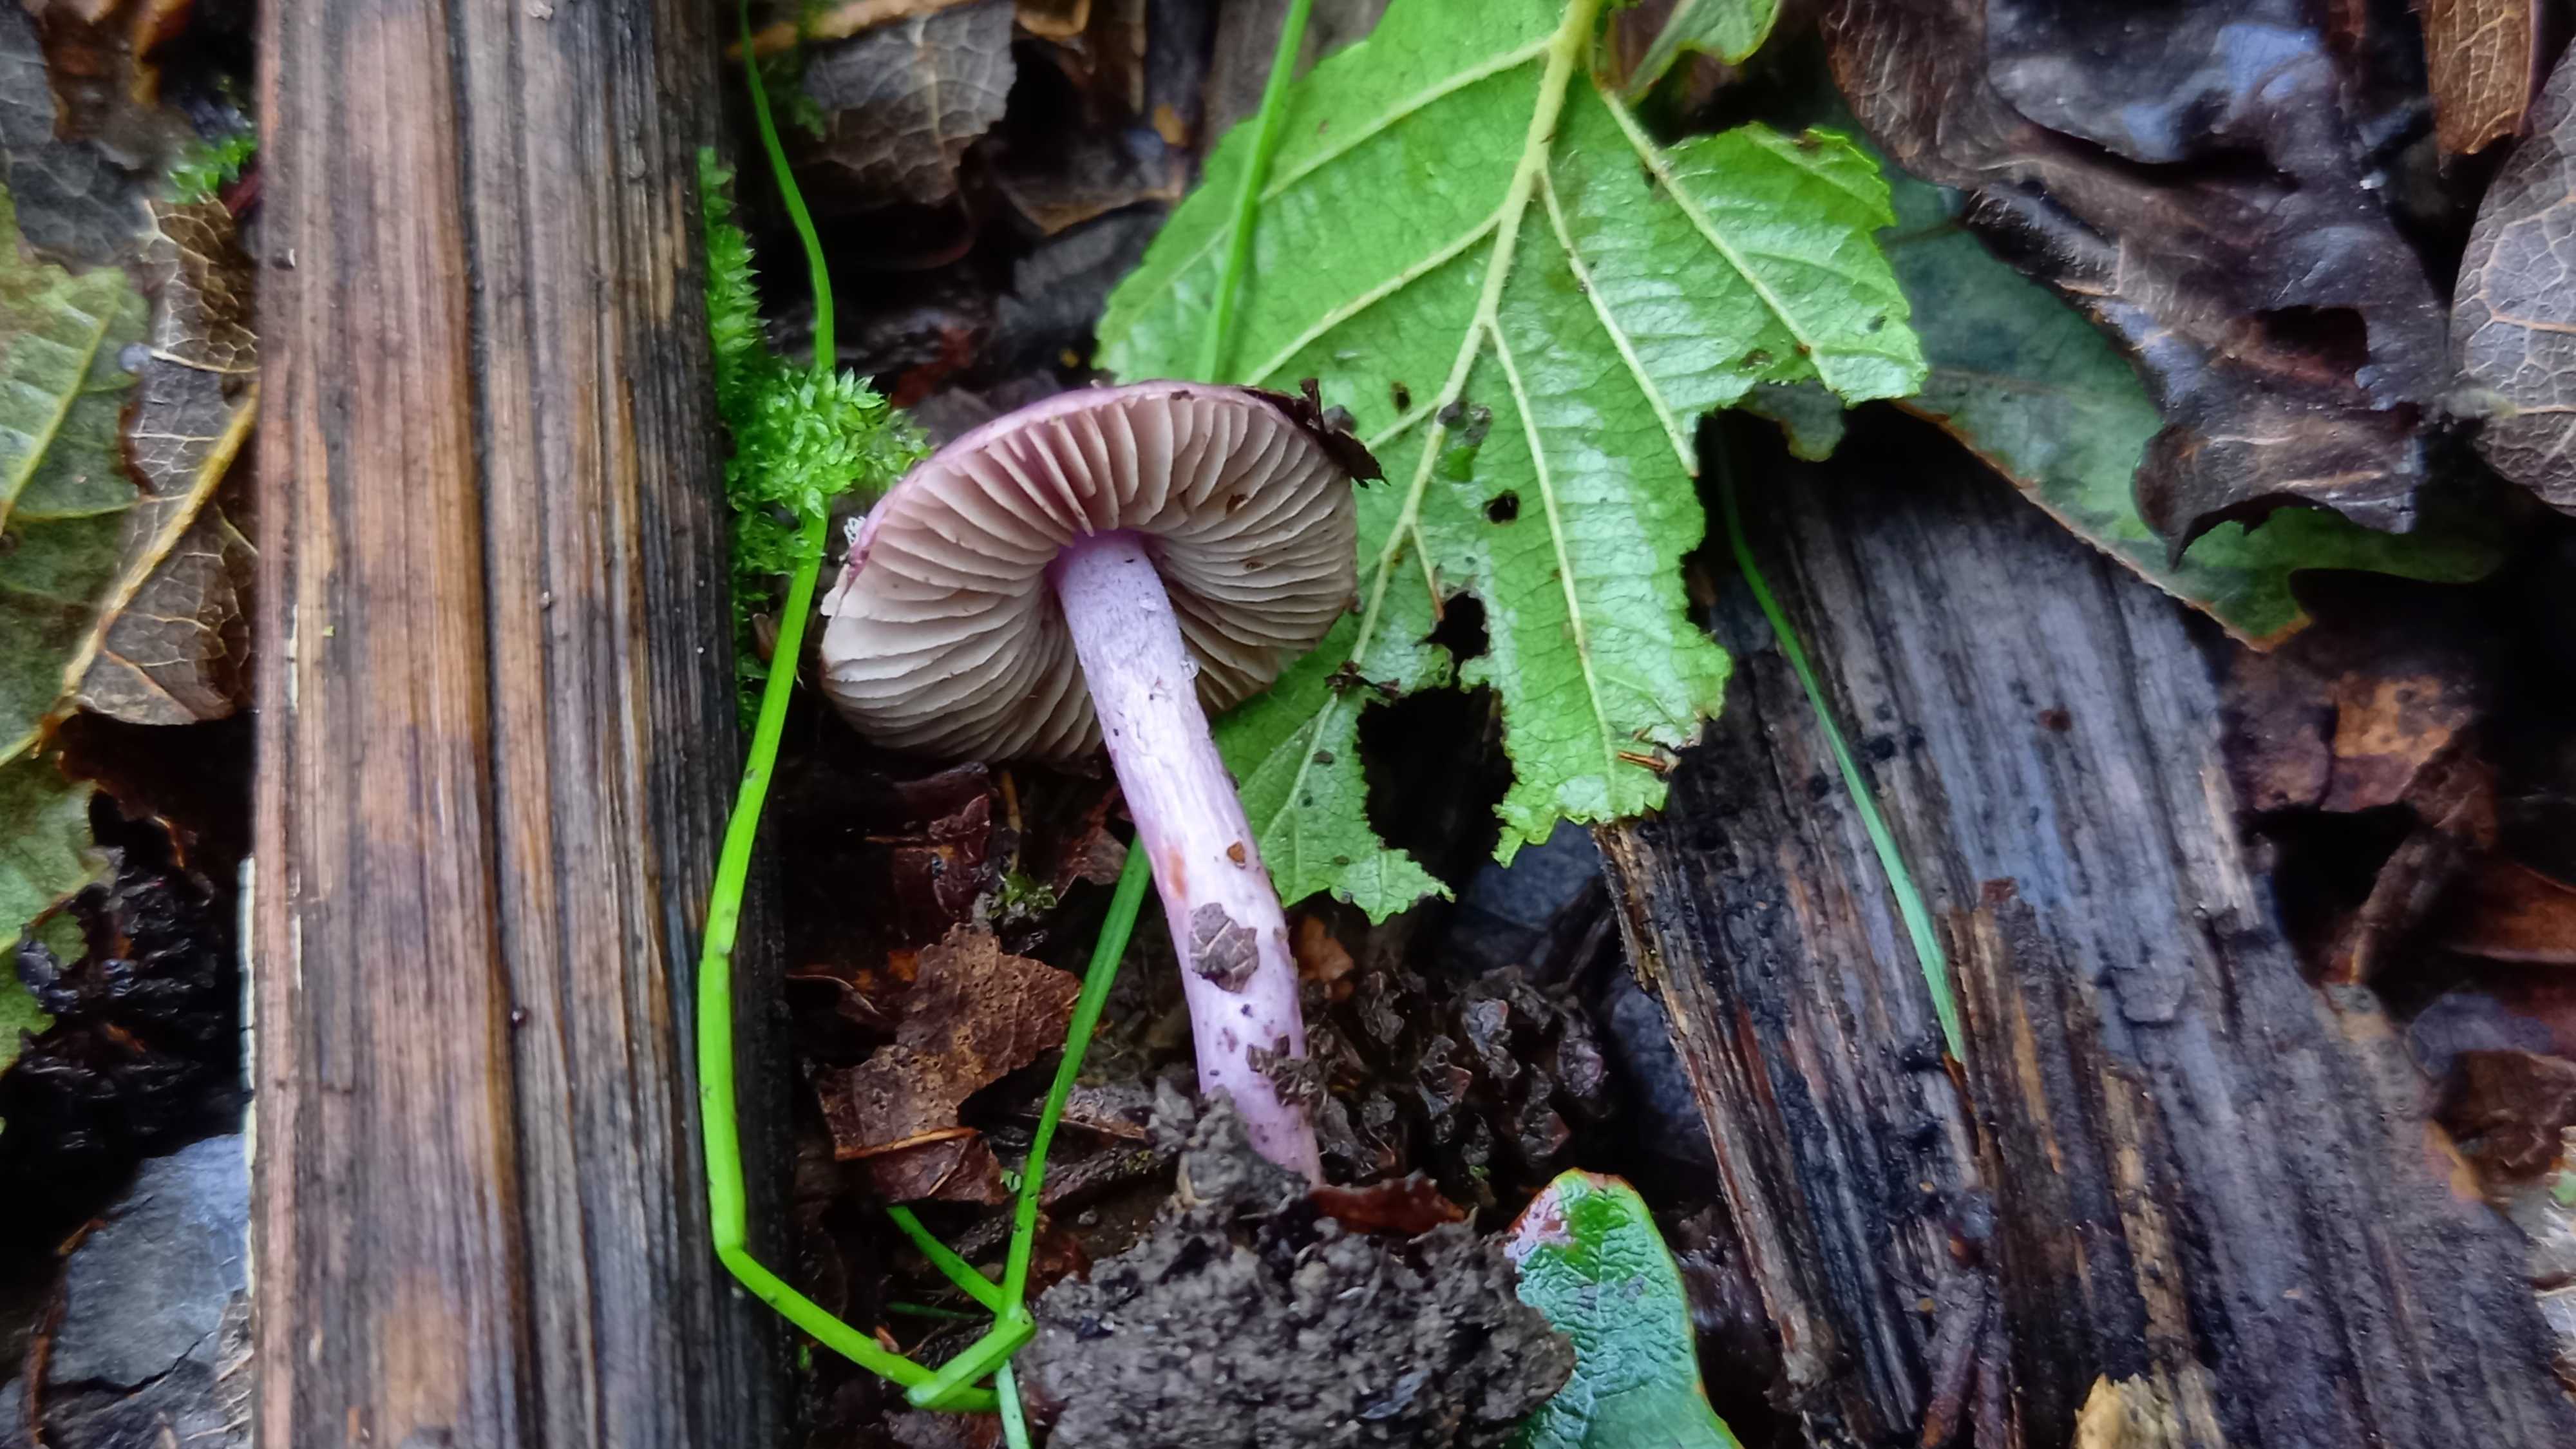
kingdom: Fungi
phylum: Basidiomycota
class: Agaricomycetes
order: Agaricales
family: Inocybaceae
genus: Inocybe
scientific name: Inocybe geophylla
